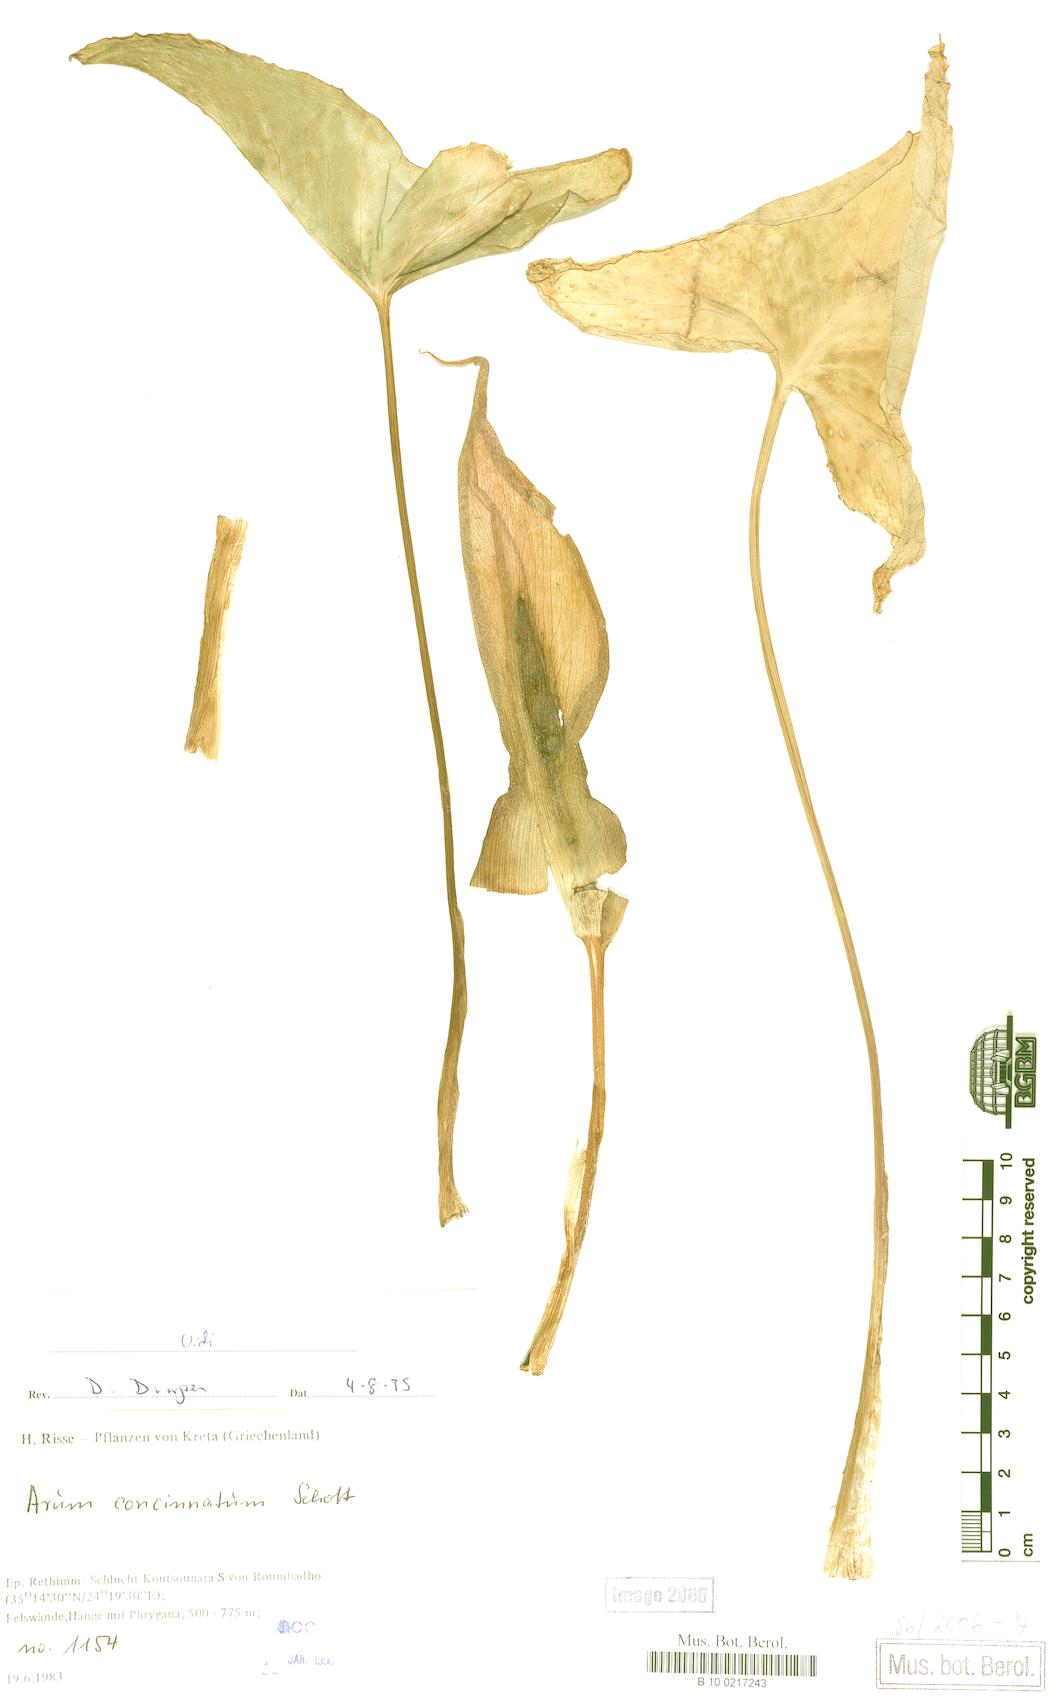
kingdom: Plantae
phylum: Tracheophyta
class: Liliopsida
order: Alismatales
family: Araceae
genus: Arum
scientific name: Arum concinnatum
